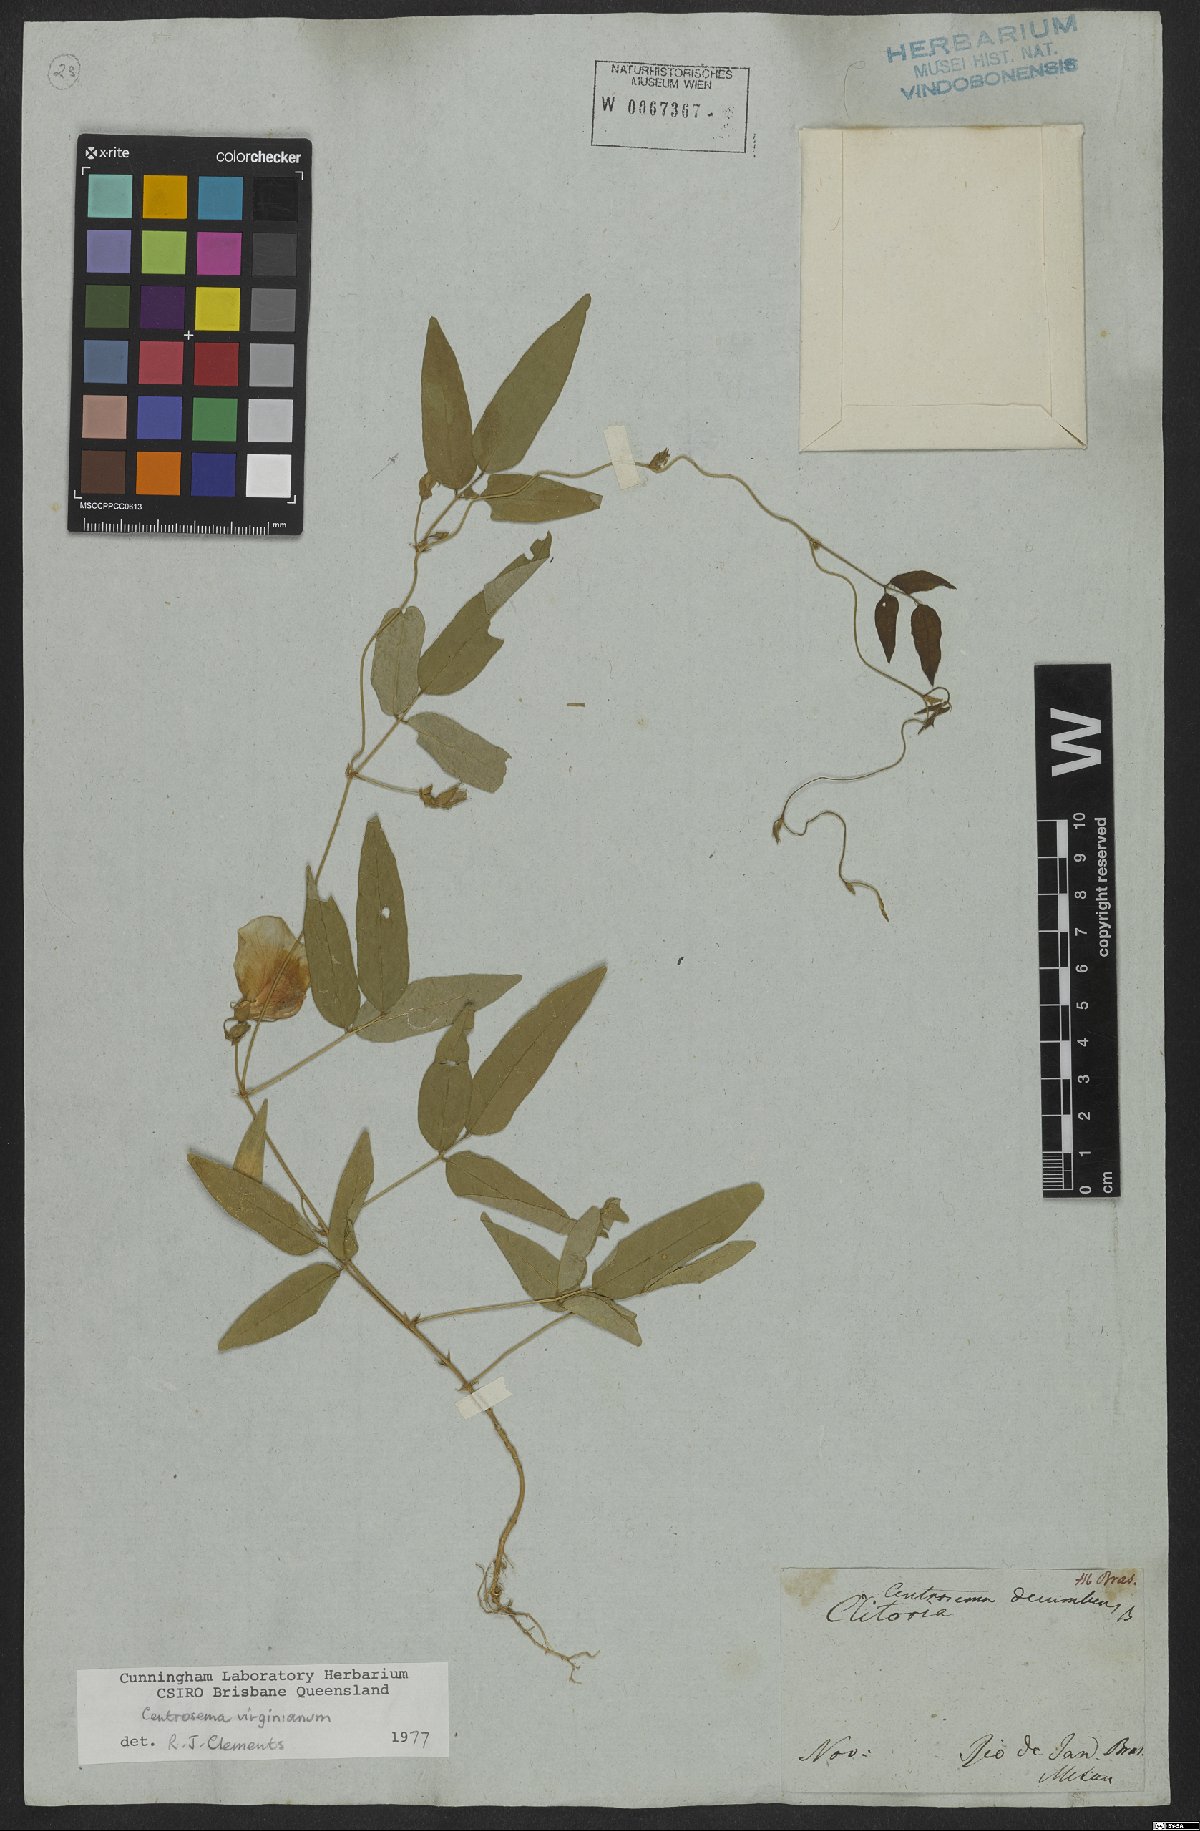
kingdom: Plantae
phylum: Tracheophyta
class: Magnoliopsida
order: Fabales
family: Fabaceae
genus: Centrosema
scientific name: Centrosema virginianum
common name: Butterfly-pea
